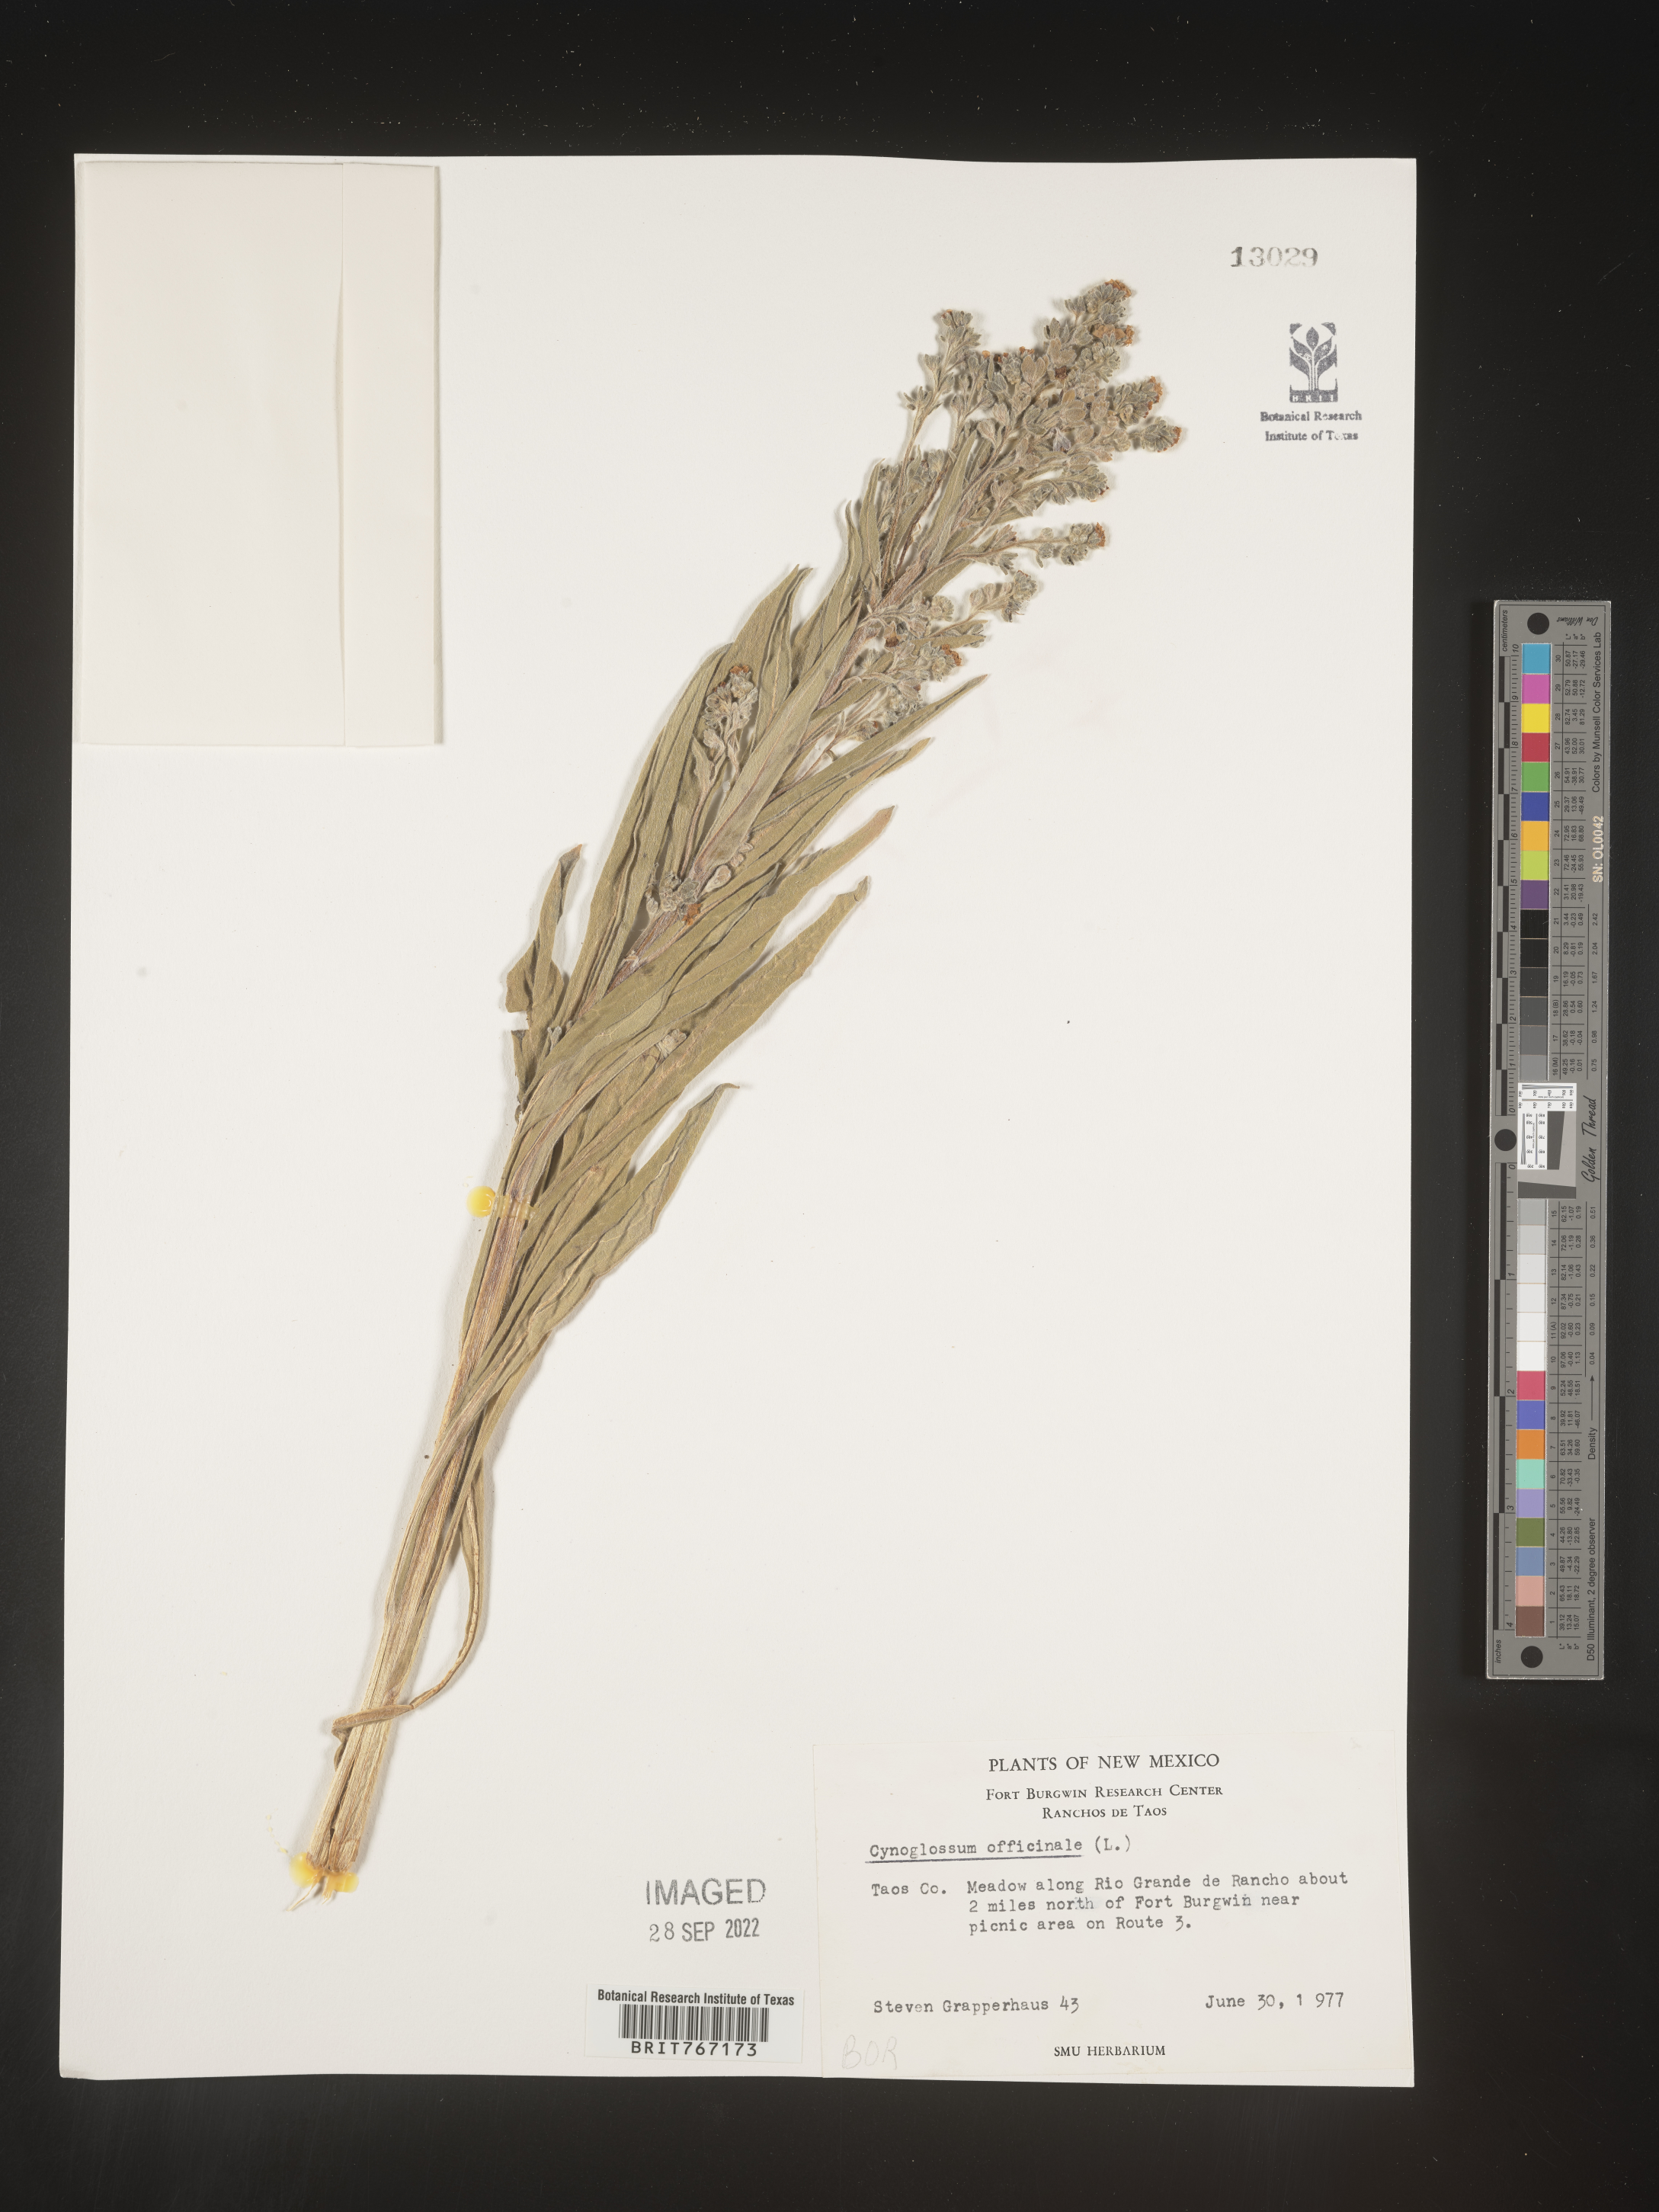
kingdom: Plantae
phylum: Tracheophyta
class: Magnoliopsida
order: Boraginales
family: Boraginaceae
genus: Cynoglossum
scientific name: Cynoglossum officinale
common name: Hound's-tongue
